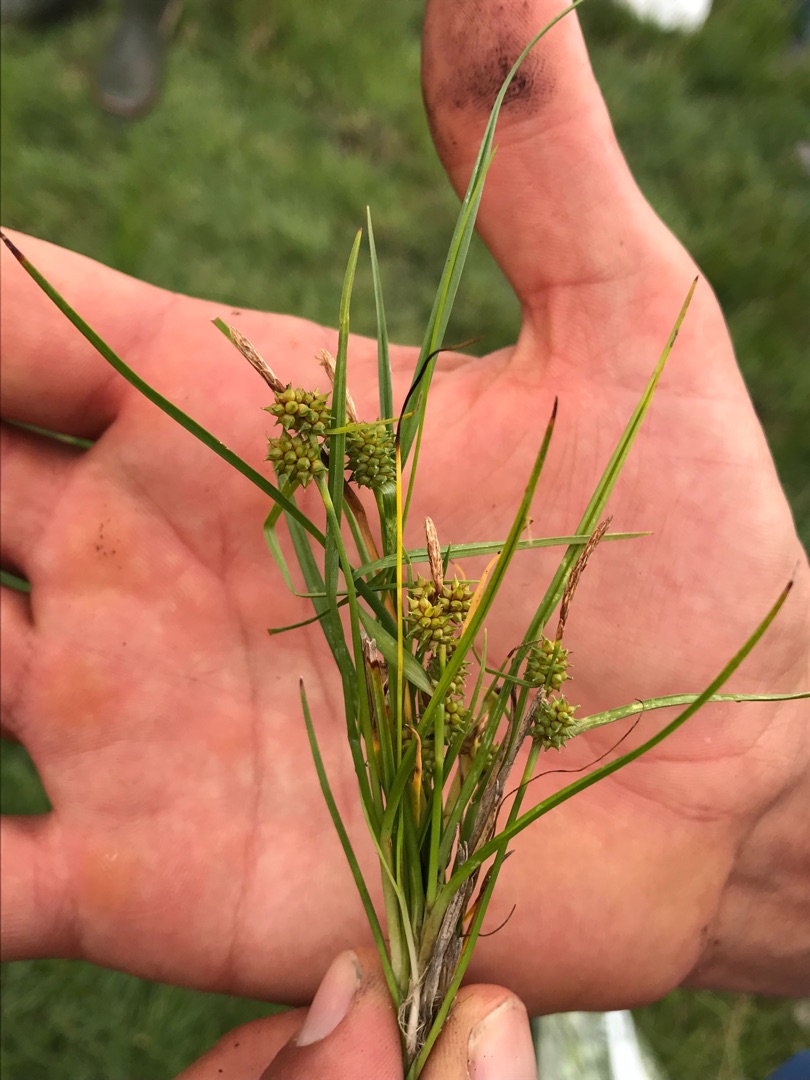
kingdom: Plantae
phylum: Tracheophyta
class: Liliopsida
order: Poales
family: Cyperaceae
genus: Carex
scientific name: Carex oederi
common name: Dværg-star
